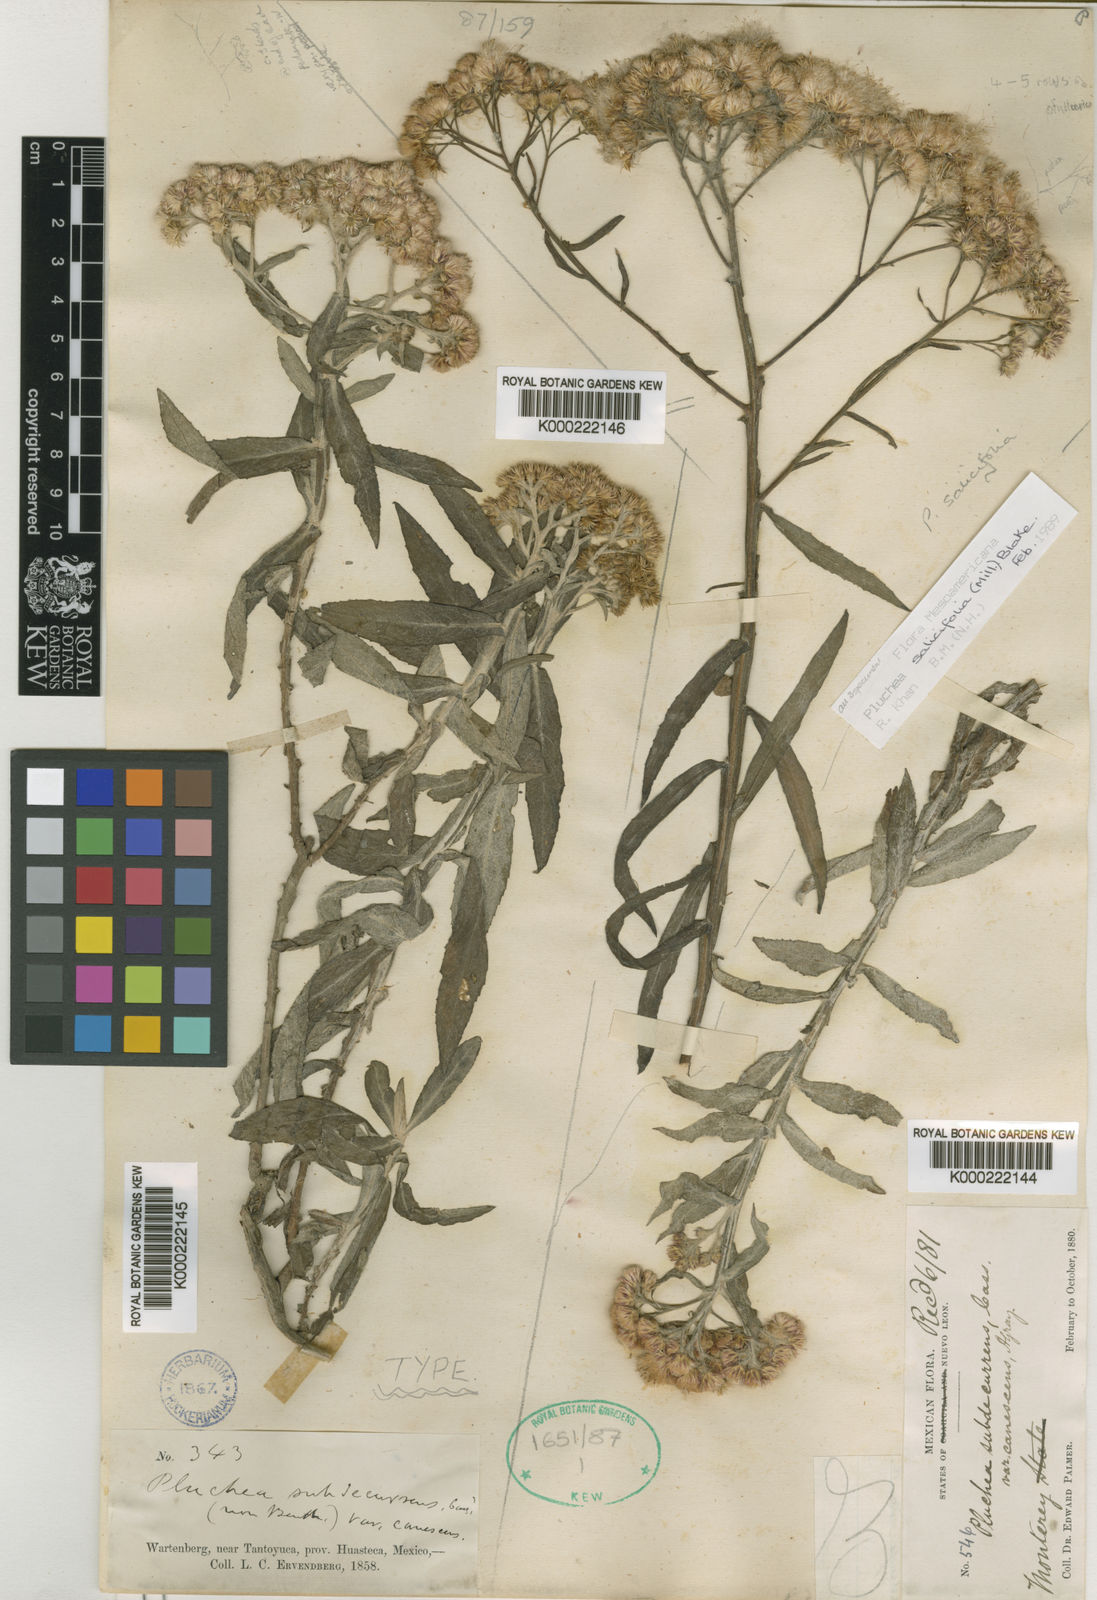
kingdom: Plantae
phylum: Tracheophyta
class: Magnoliopsida
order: Asterales
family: Asteraceae
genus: Pluchea
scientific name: Pluchea salicifolia
